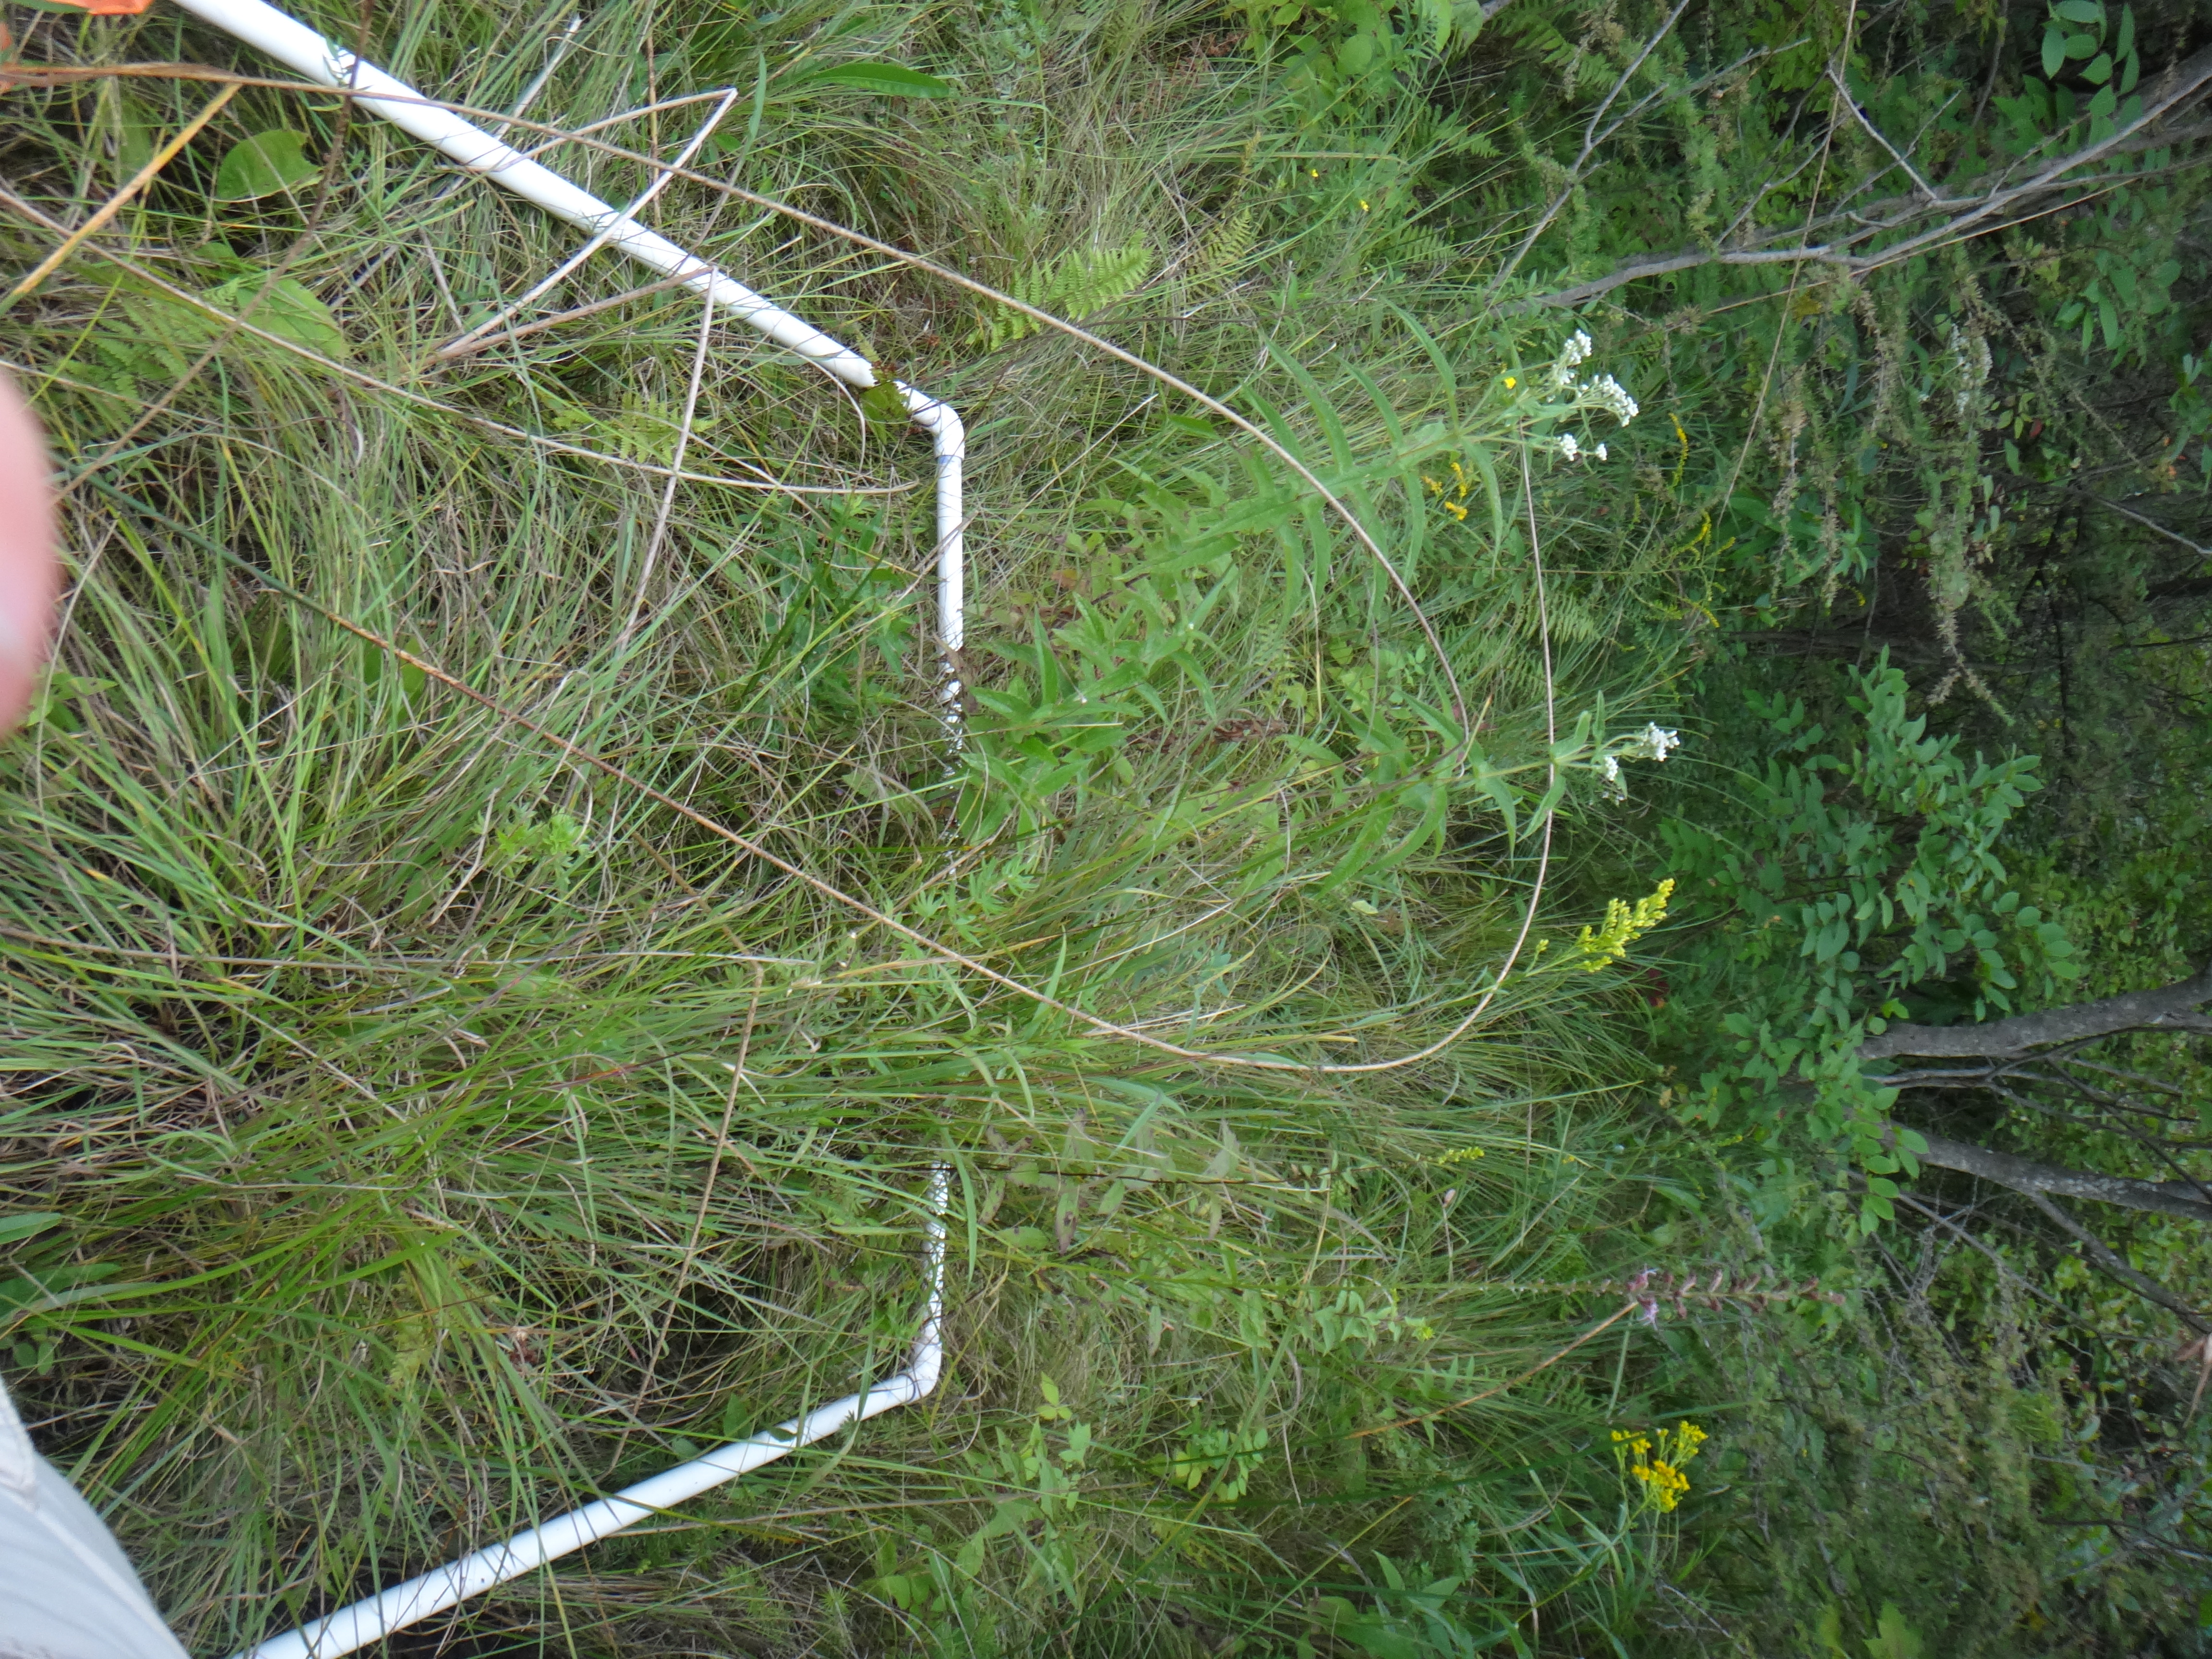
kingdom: Plantae
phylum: Tracheophyta
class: Magnoliopsida
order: Asterales
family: Asteraceae
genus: Solidago
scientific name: Solidago patula
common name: Rough-leaf goldenrod
